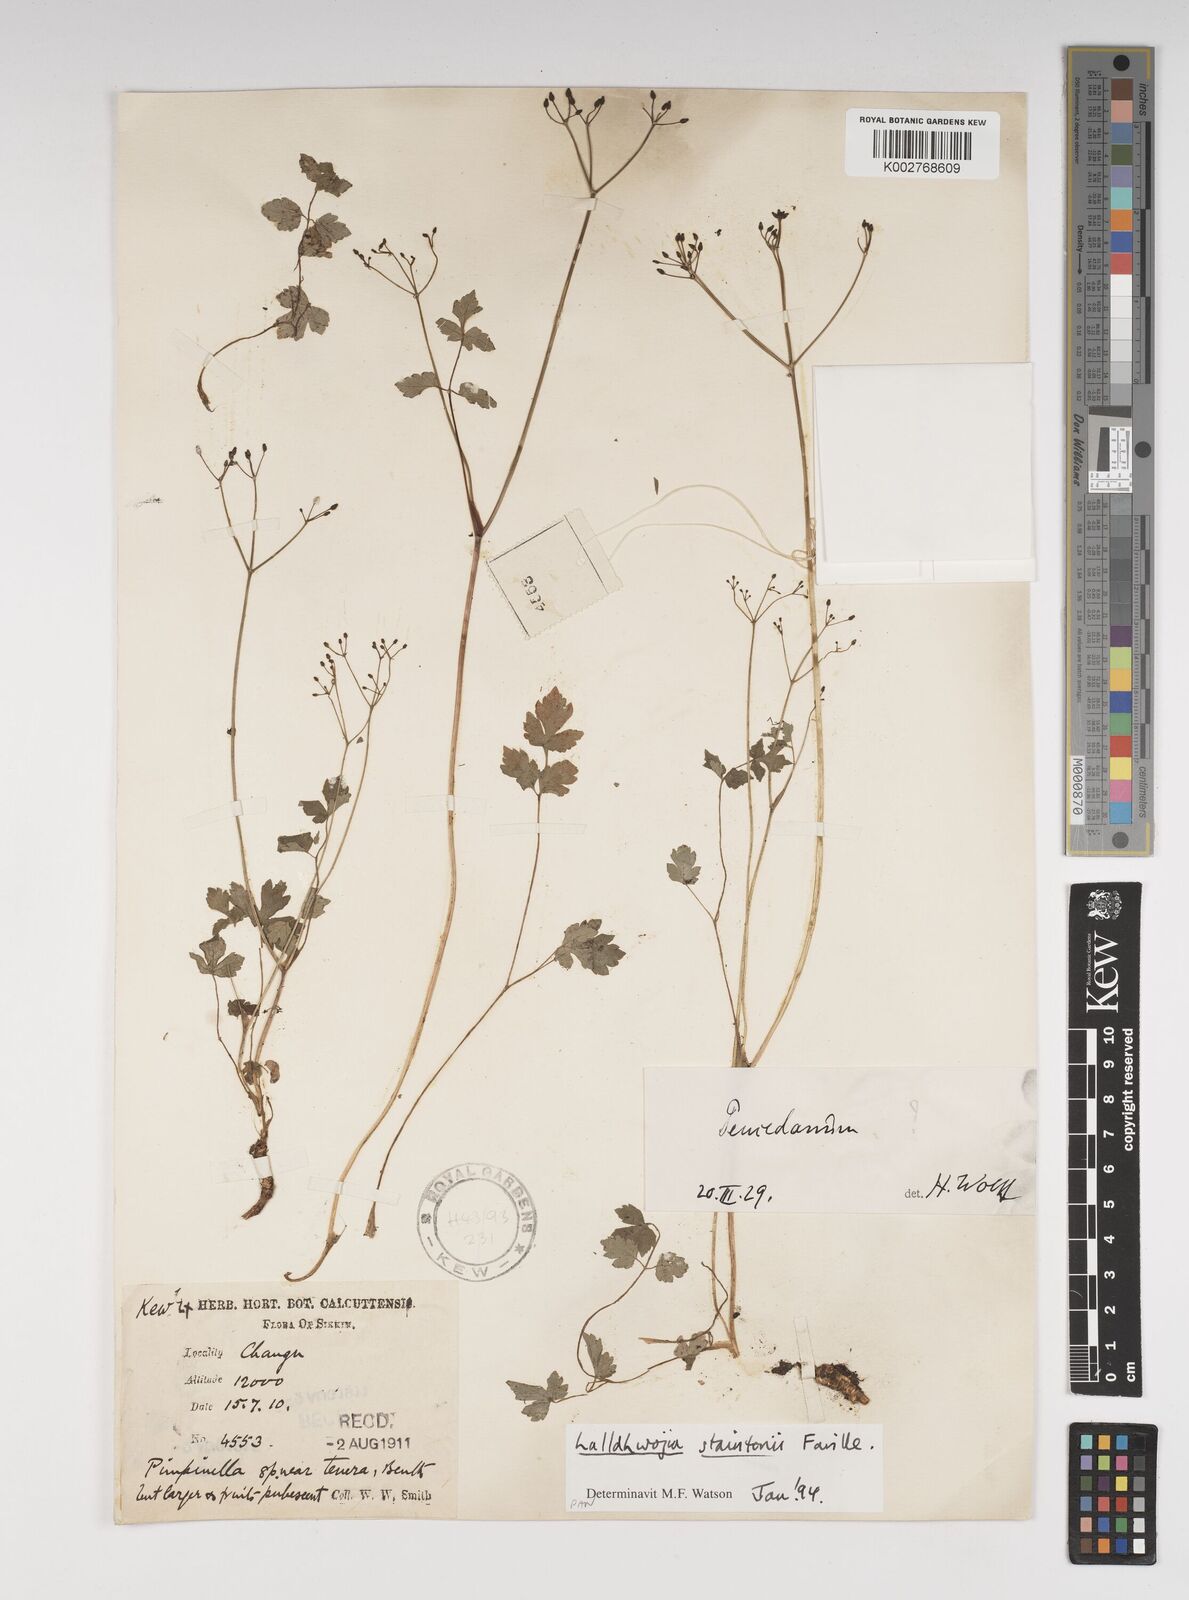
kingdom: Plantae
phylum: Tracheophyta
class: Magnoliopsida
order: Apiales
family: Apiaceae
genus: Lalldhwojia
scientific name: Lalldhwojia acronemifolia
